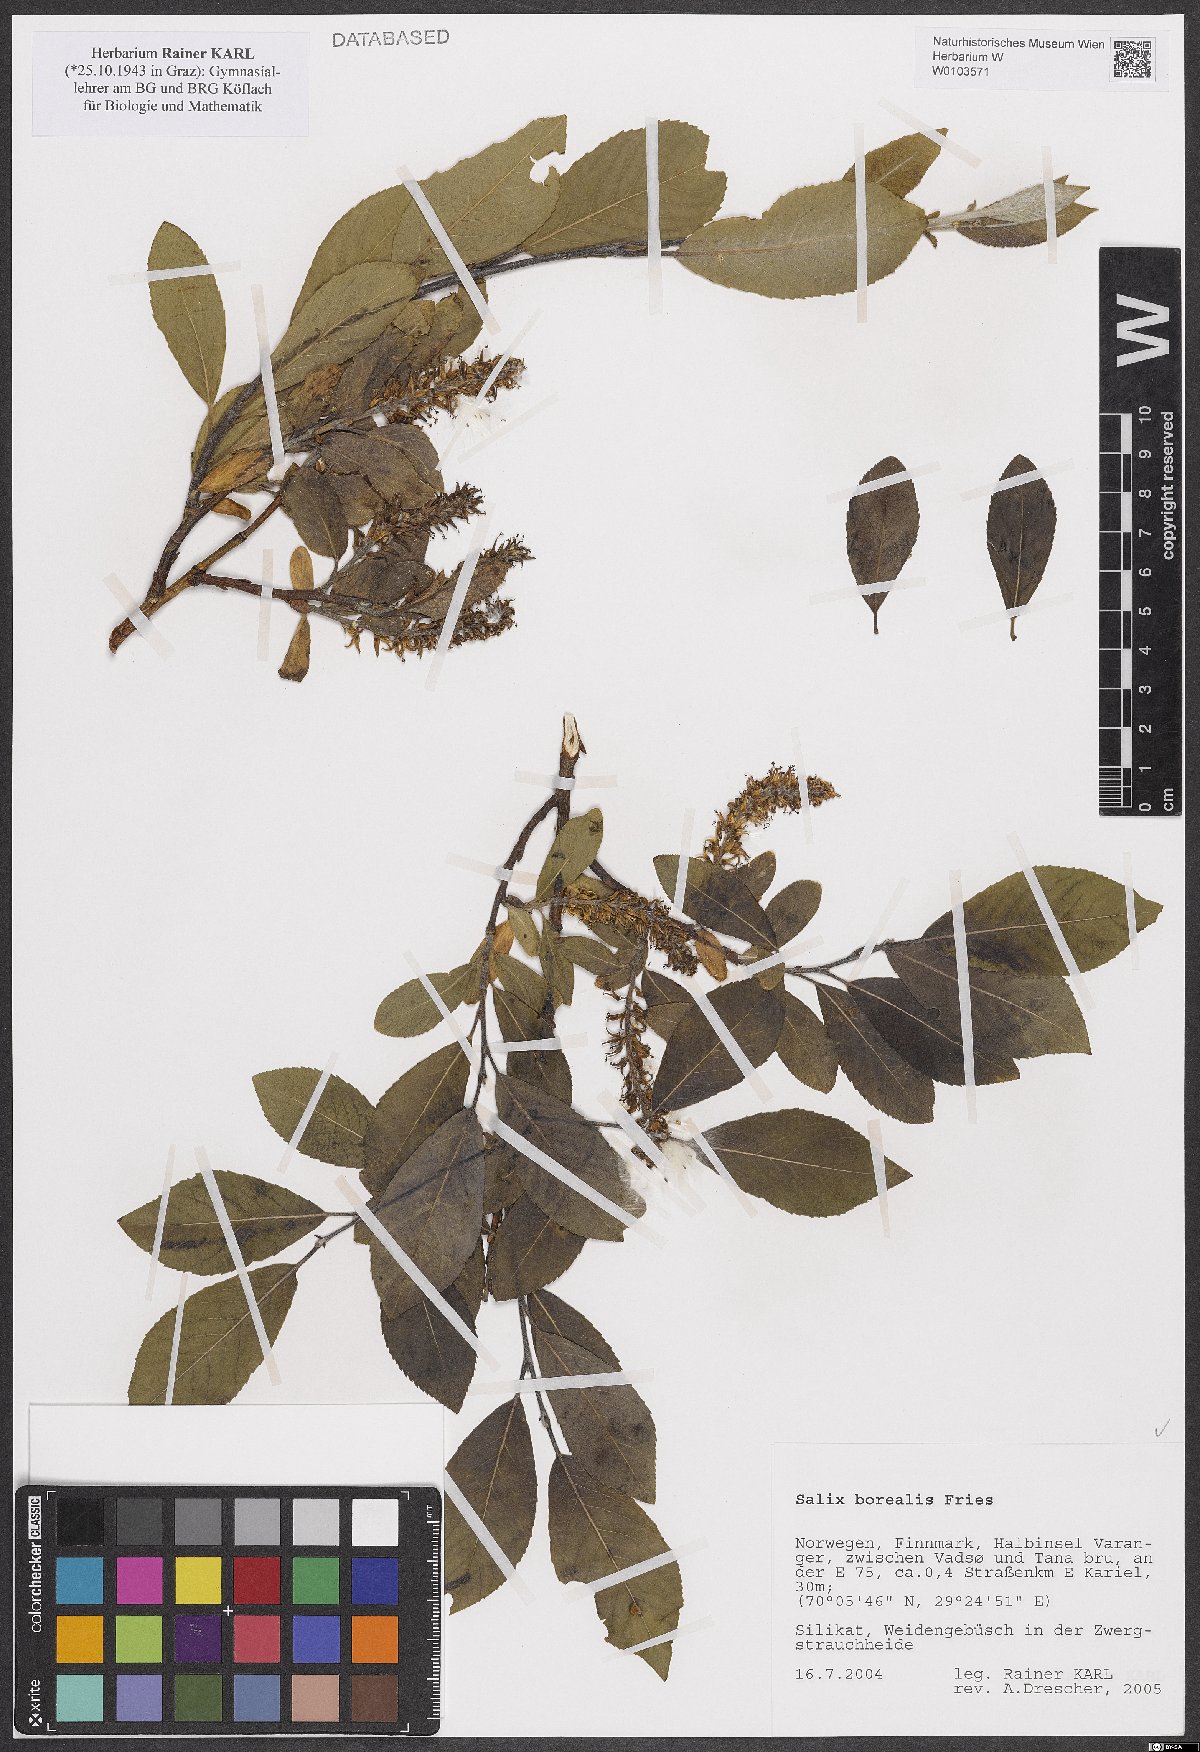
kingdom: Plantae
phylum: Tracheophyta
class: Magnoliopsida
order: Malpighiales
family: Salicaceae
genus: Salix
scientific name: Salix myrsinifolia
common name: Dark-leaved willow
